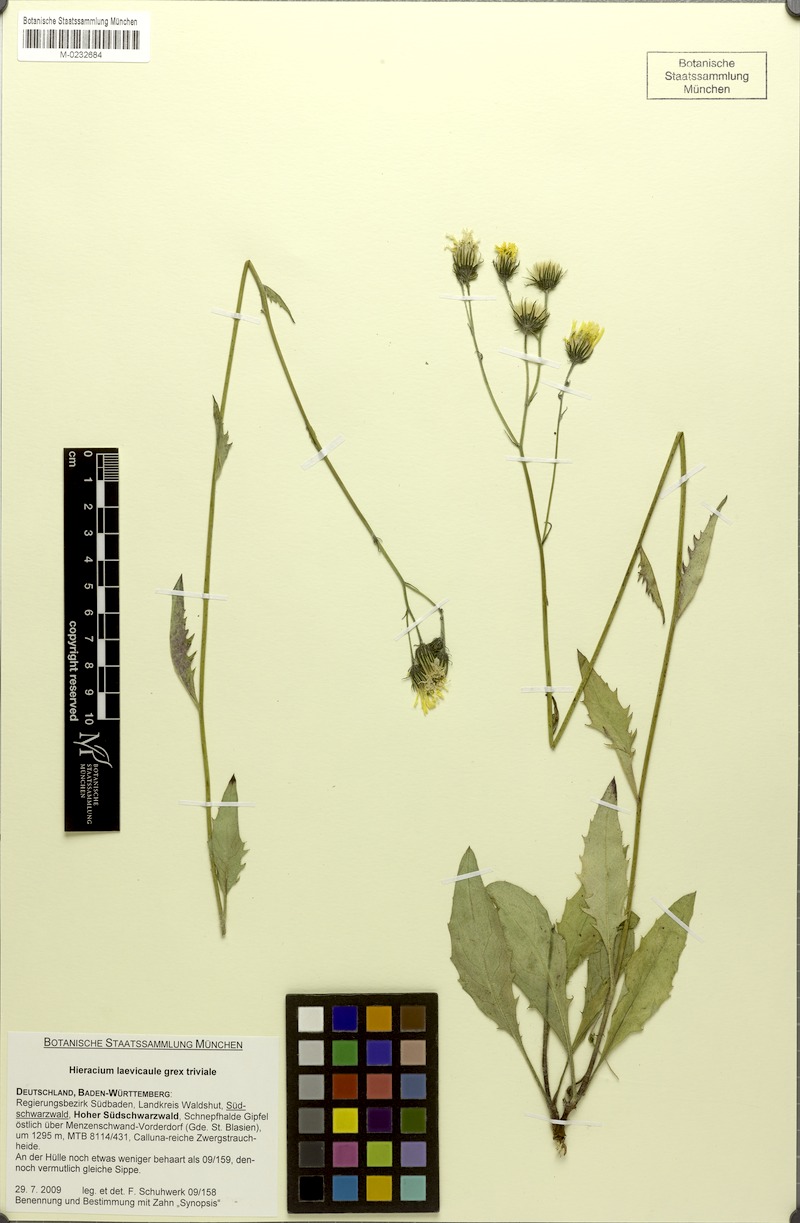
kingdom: Plantae
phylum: Tracheophyta
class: Magnoliopsida
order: Asterales
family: Asteraceae
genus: Hieracium
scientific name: Hieracium
